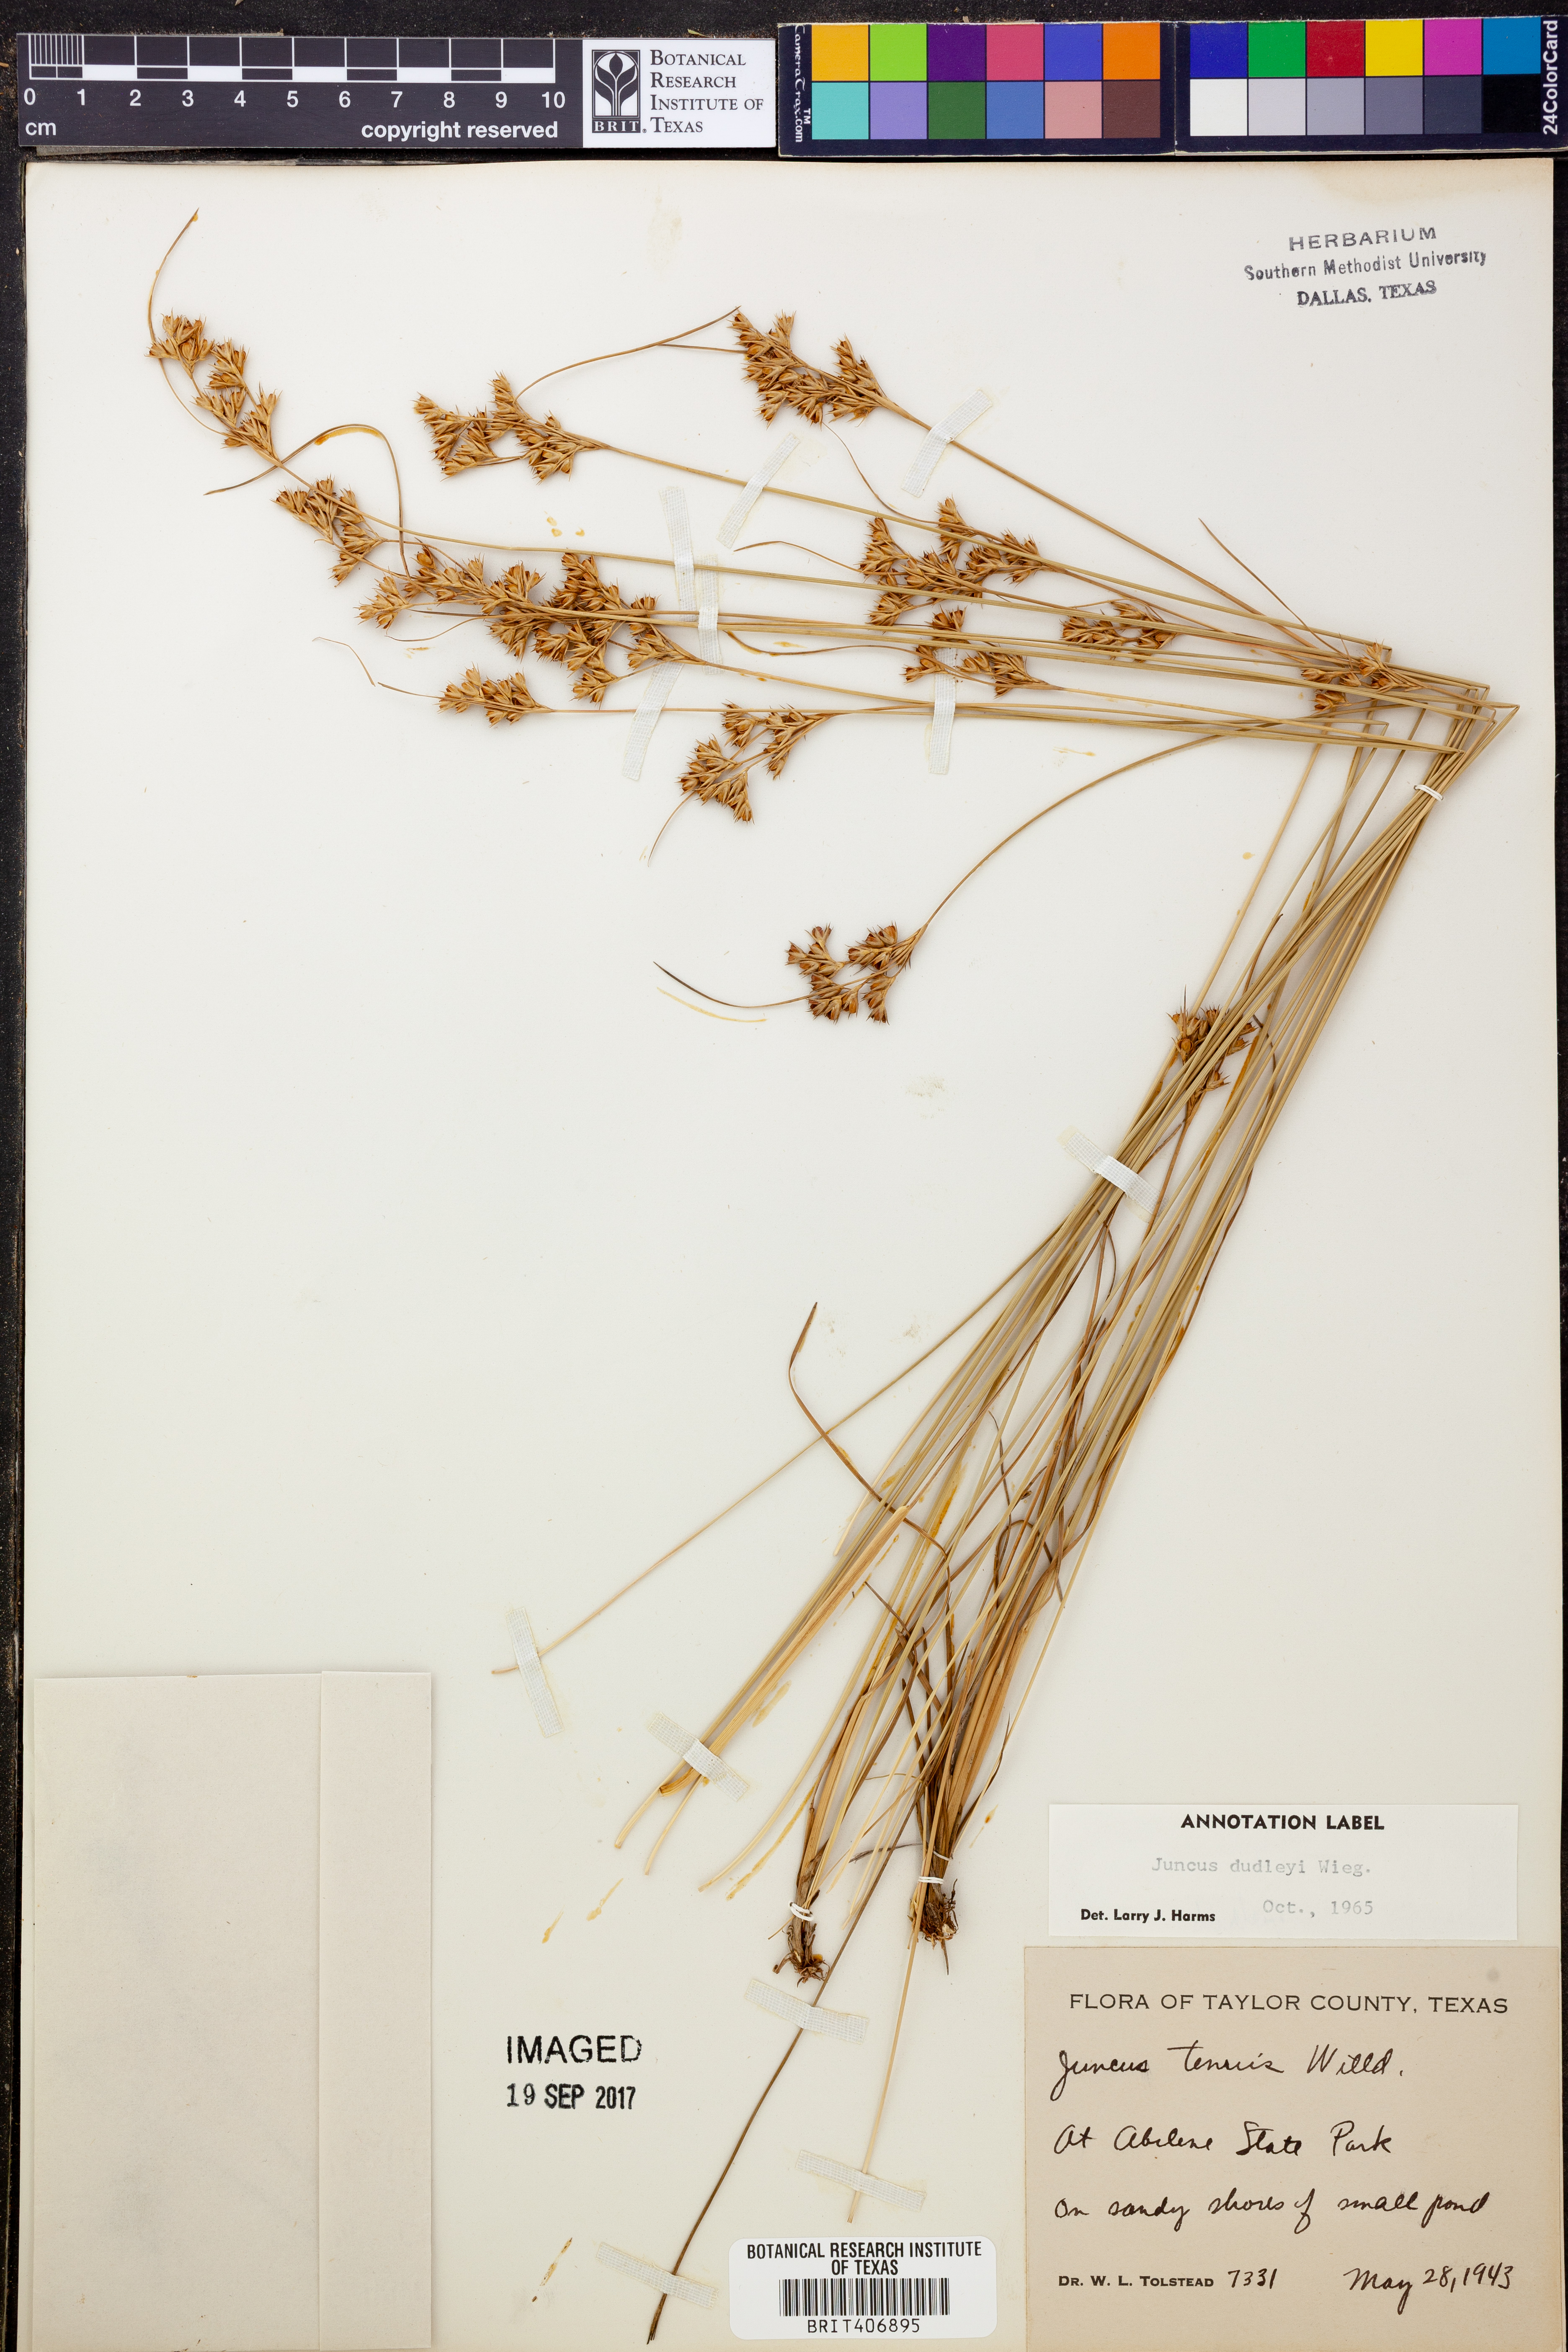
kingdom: Plantae
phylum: Tracheophyta
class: Liliopsida
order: Poales
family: Juncaceae
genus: Juncus
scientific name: Juncus dudleyi
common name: Dudley's rush
